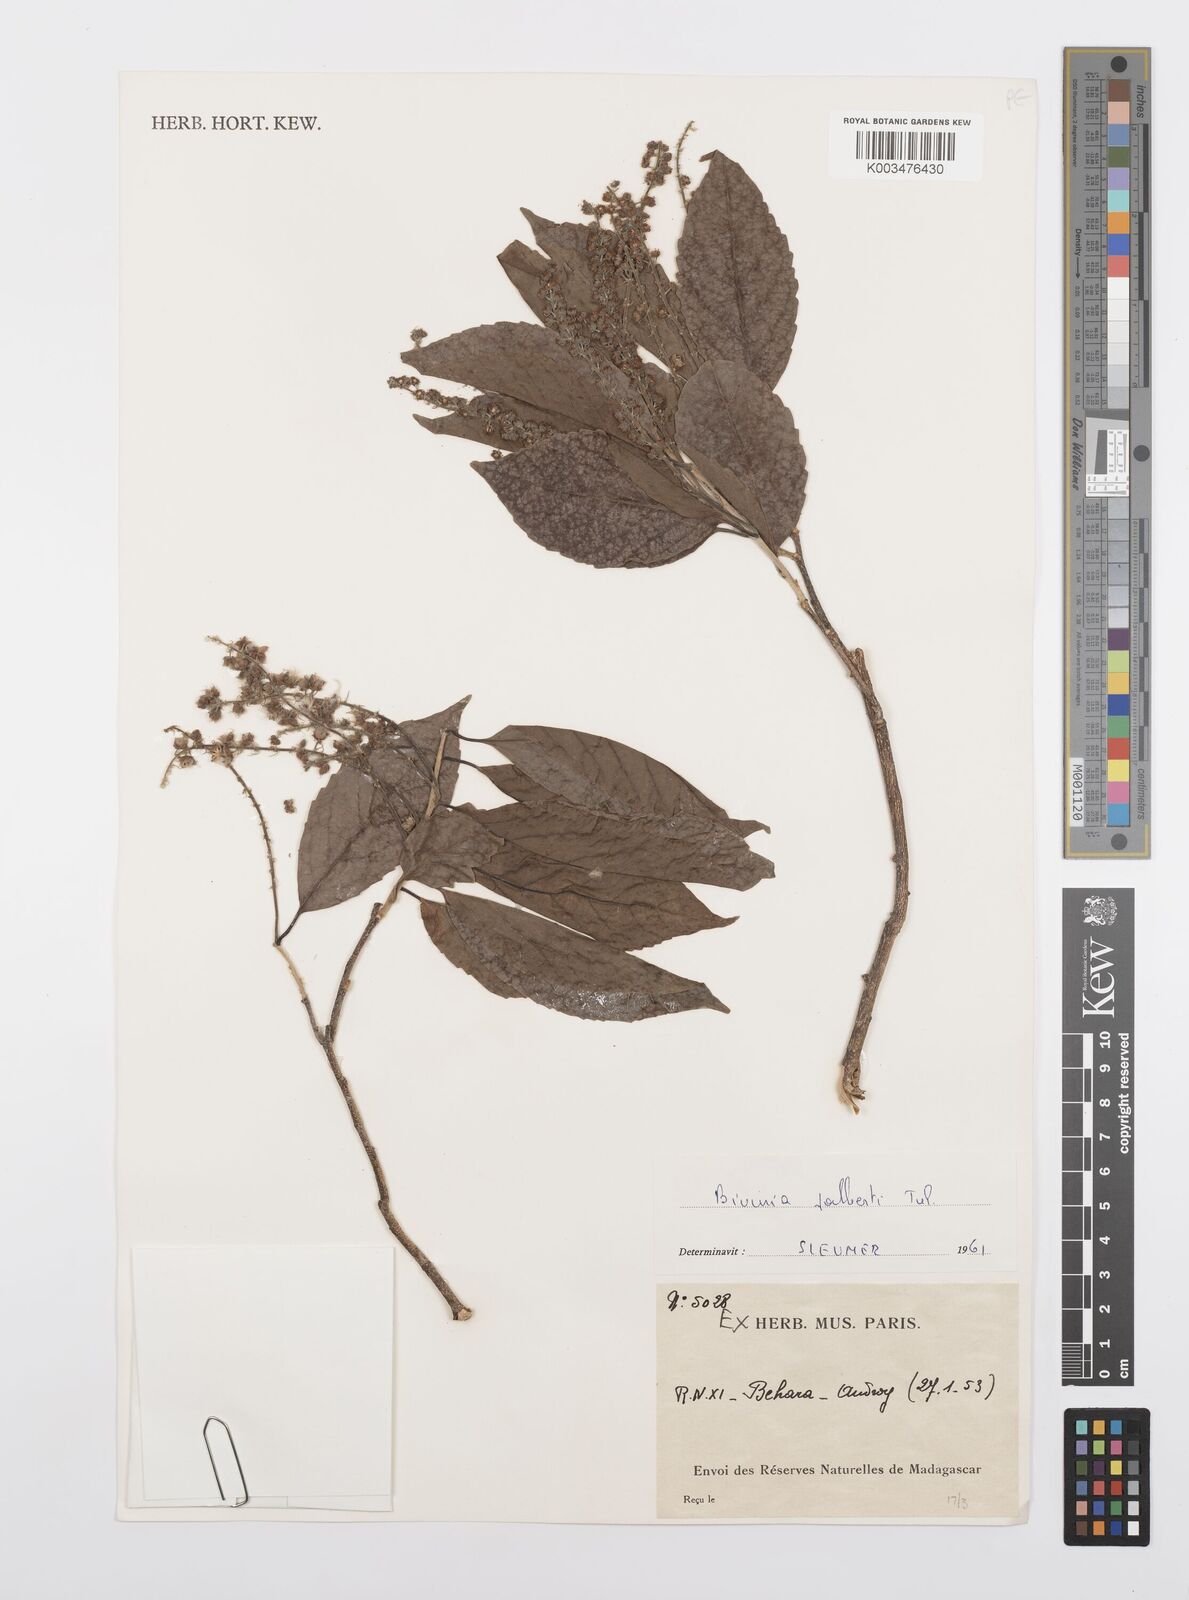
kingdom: Plantae
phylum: Tracheophyta
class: Magnoliopsida
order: Malpighiales
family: Salicaceae
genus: Bivinia
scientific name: Bivinia jalbertii
